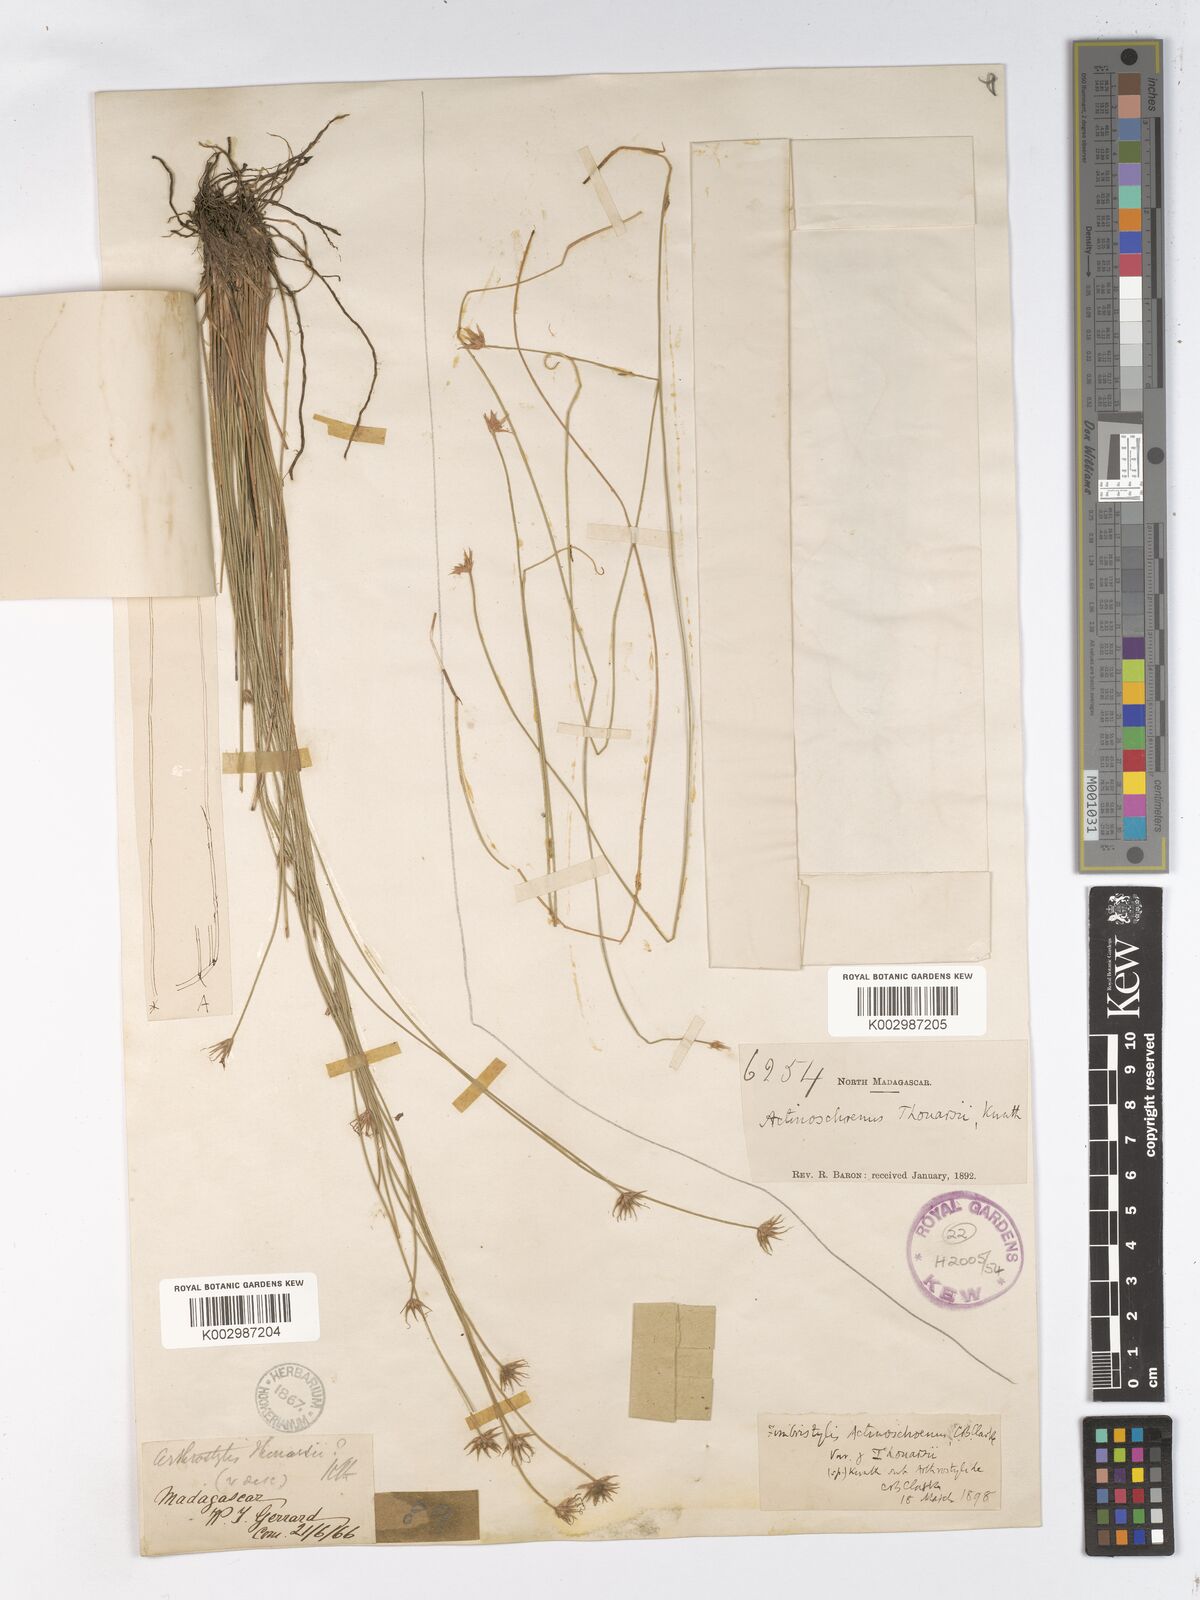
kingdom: Plantae
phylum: Tracheophyta
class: Liliopsida
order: Poales
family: Cyperaceae
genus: Actinoschoenus
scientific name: Actinoschoenus aphyllus
